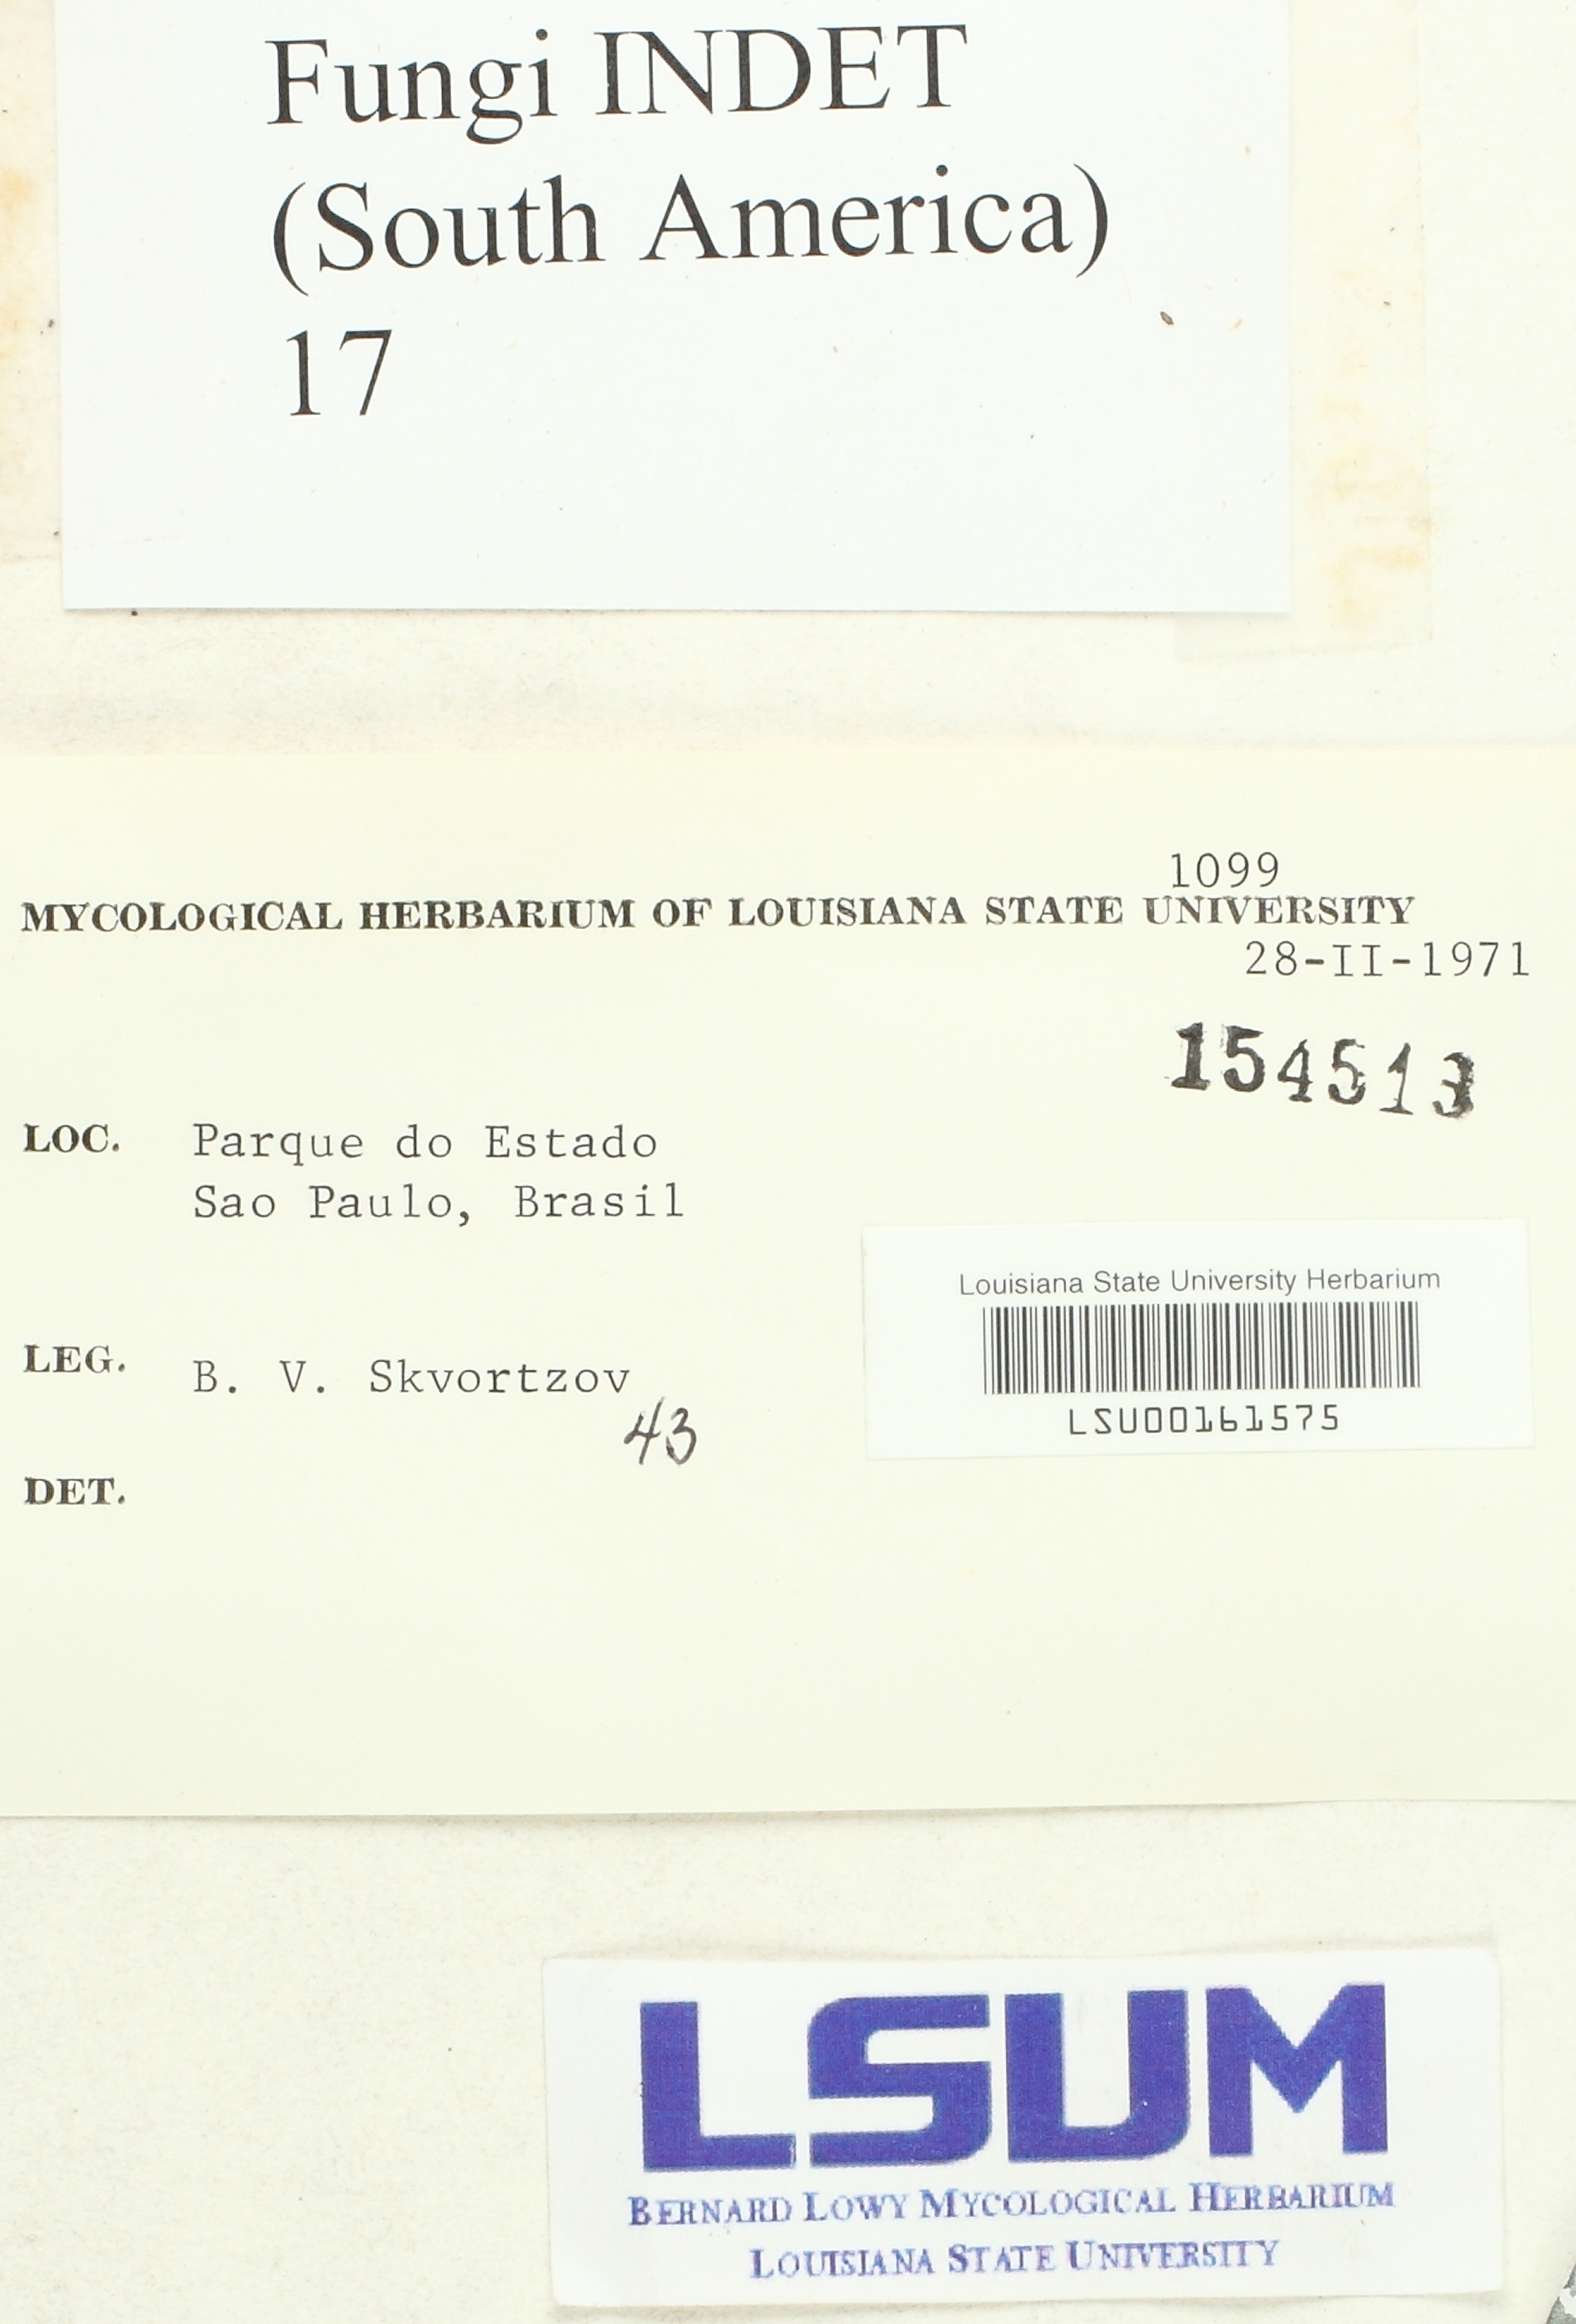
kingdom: Fungi
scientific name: Fungi
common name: Fungi
